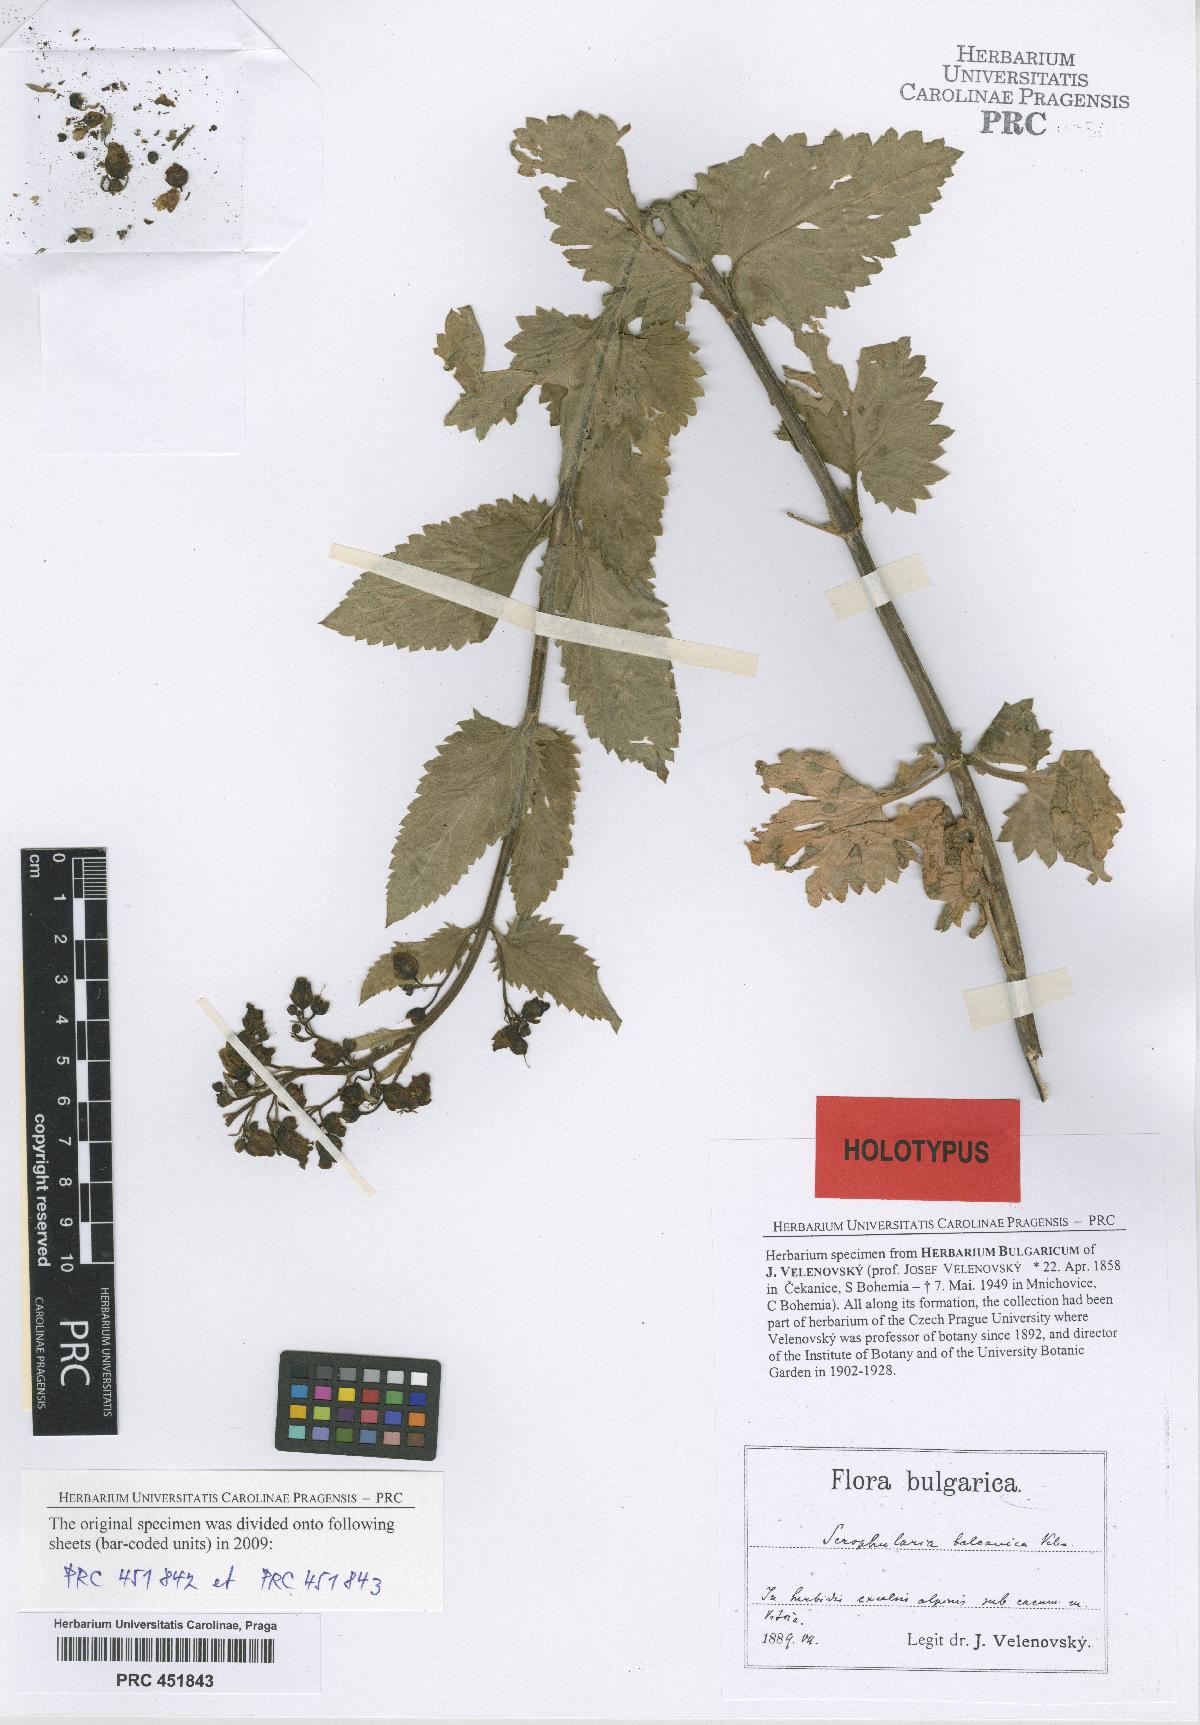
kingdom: Plantae
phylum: Tracheophyta
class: Magnoliopsida
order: Lamiales
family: Scrophulariaceae
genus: Scrophularia
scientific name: Scrophularia scopolii
